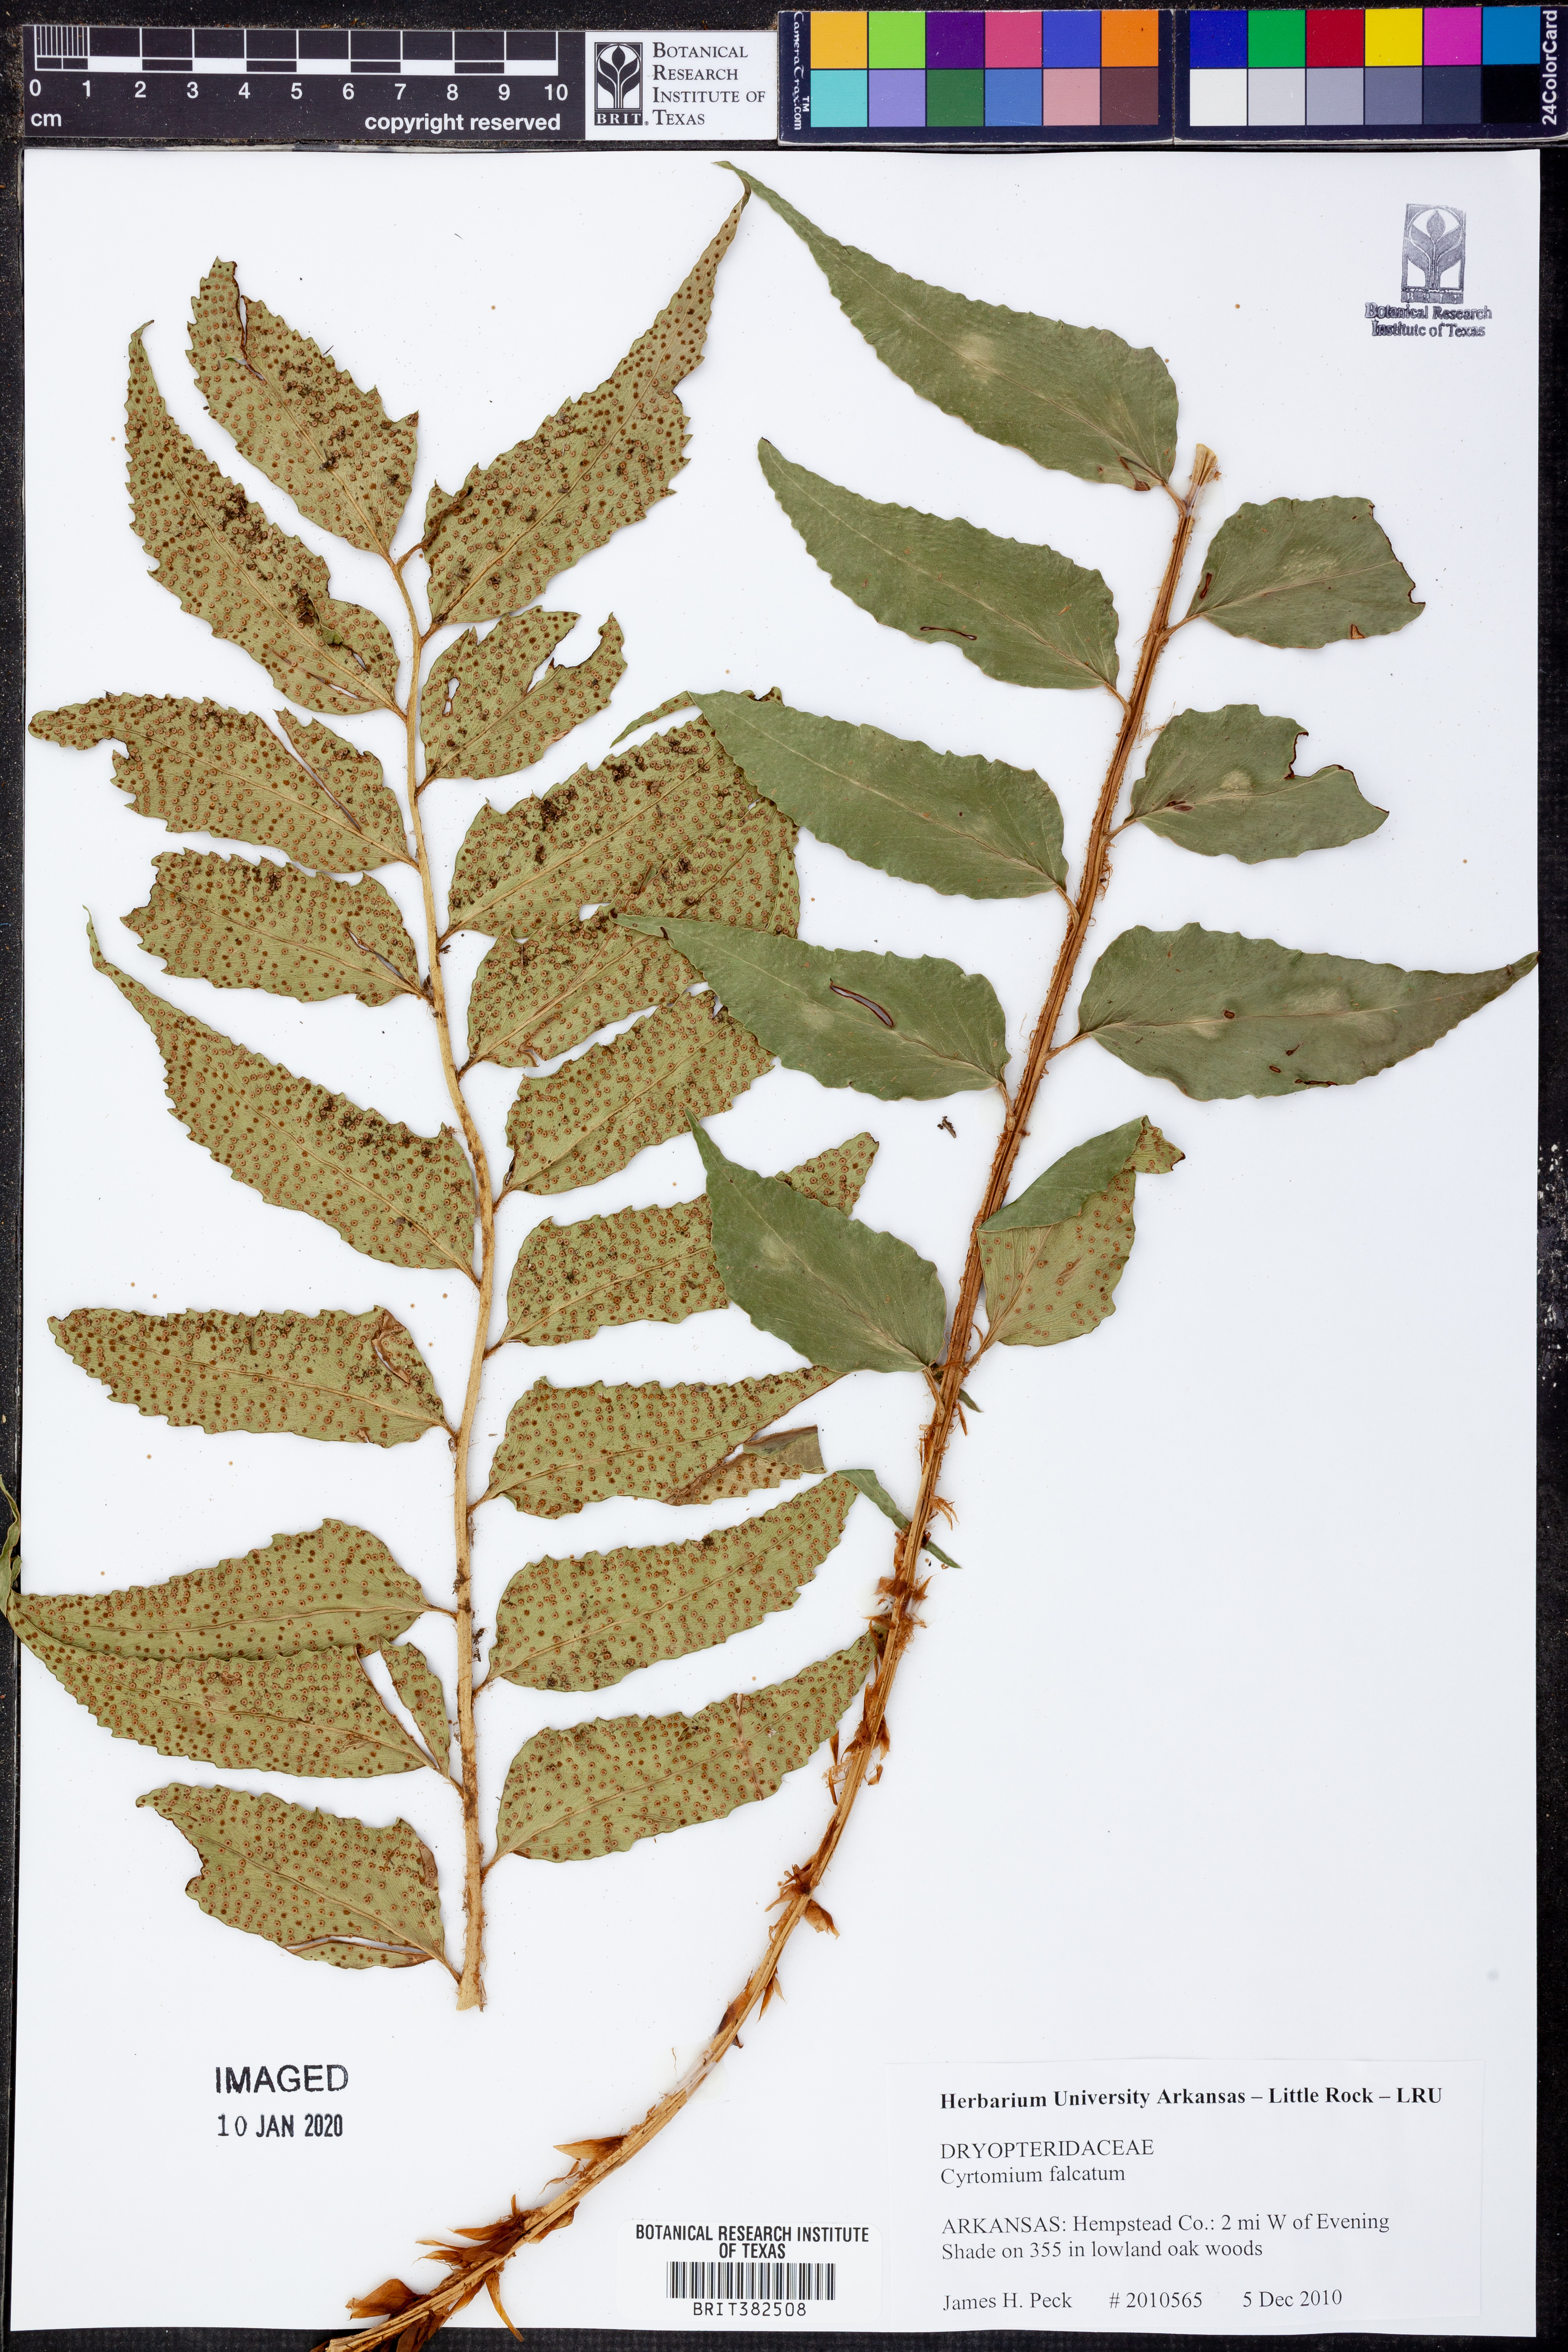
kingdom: Plantae
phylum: Tracheophyta
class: Polypodiopsida
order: Polypodiales
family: Dryopteridaceae
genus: Cyrtomium
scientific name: Cyrtomium falcatum
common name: House holly-fern
